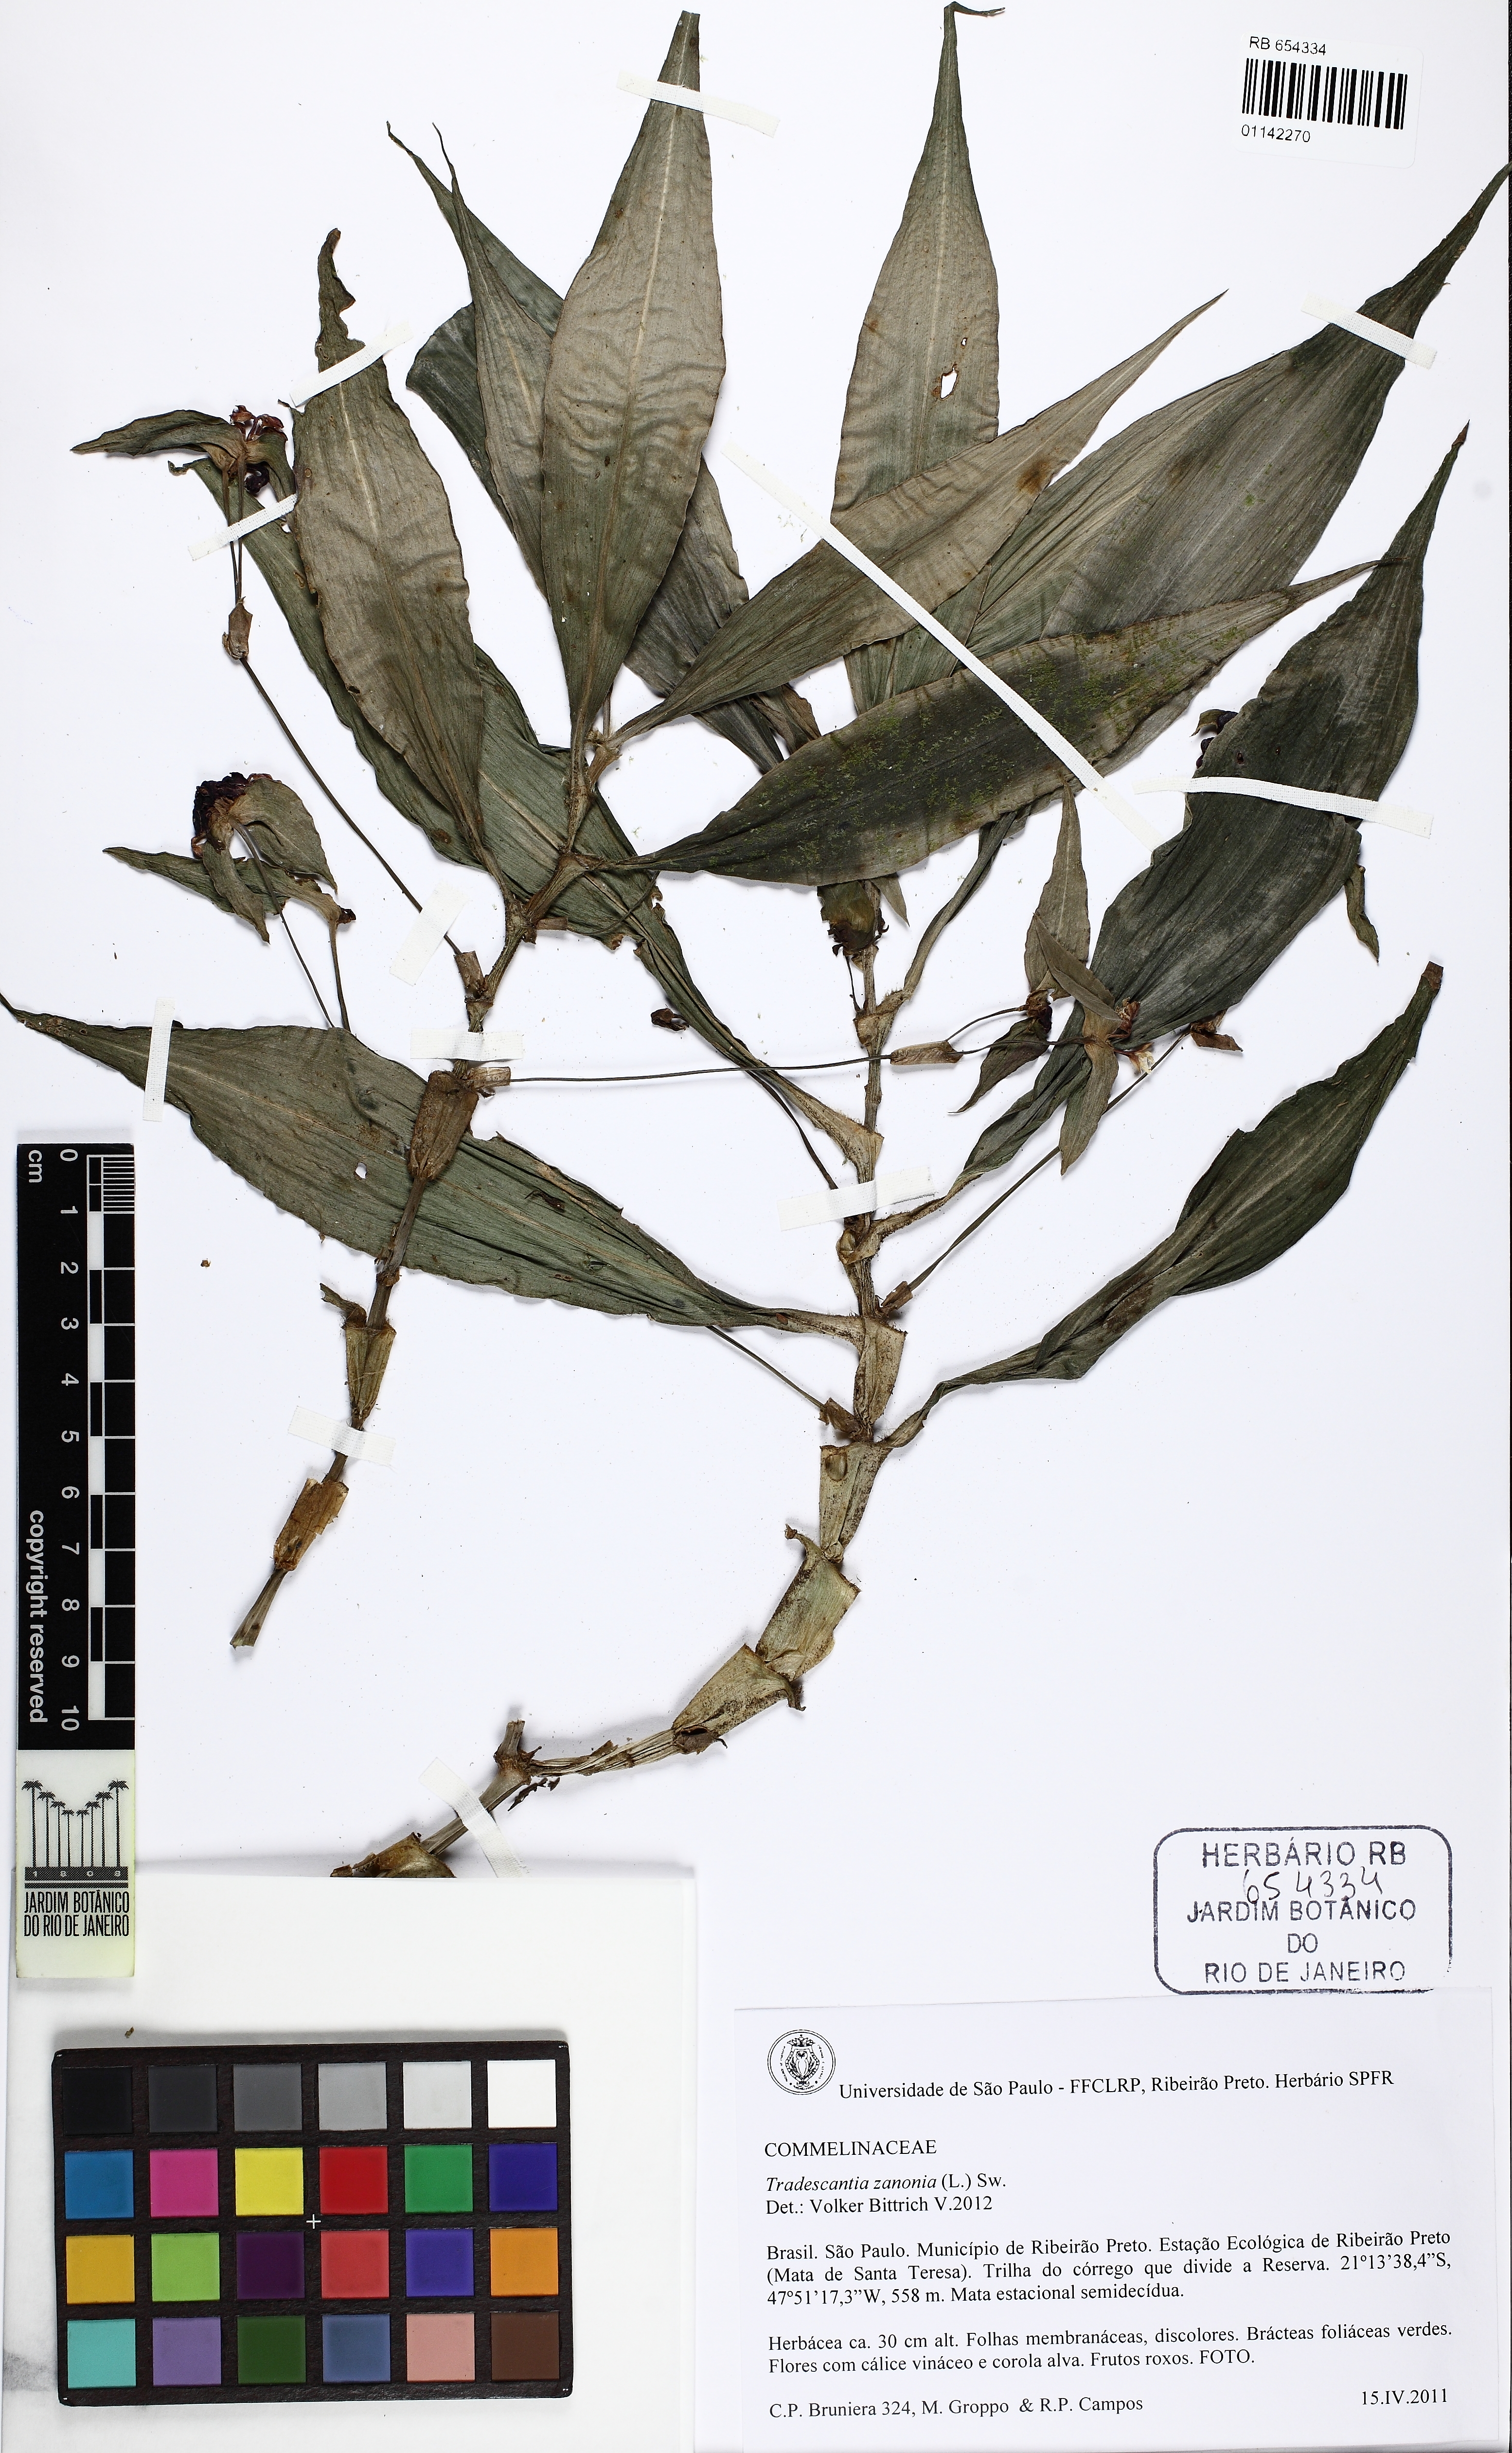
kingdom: Plantae
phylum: Tracheophyta
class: Liliopsida
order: Commelinales
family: Commelinaceae
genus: Tradescantia
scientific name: Tradescantia zanonia
